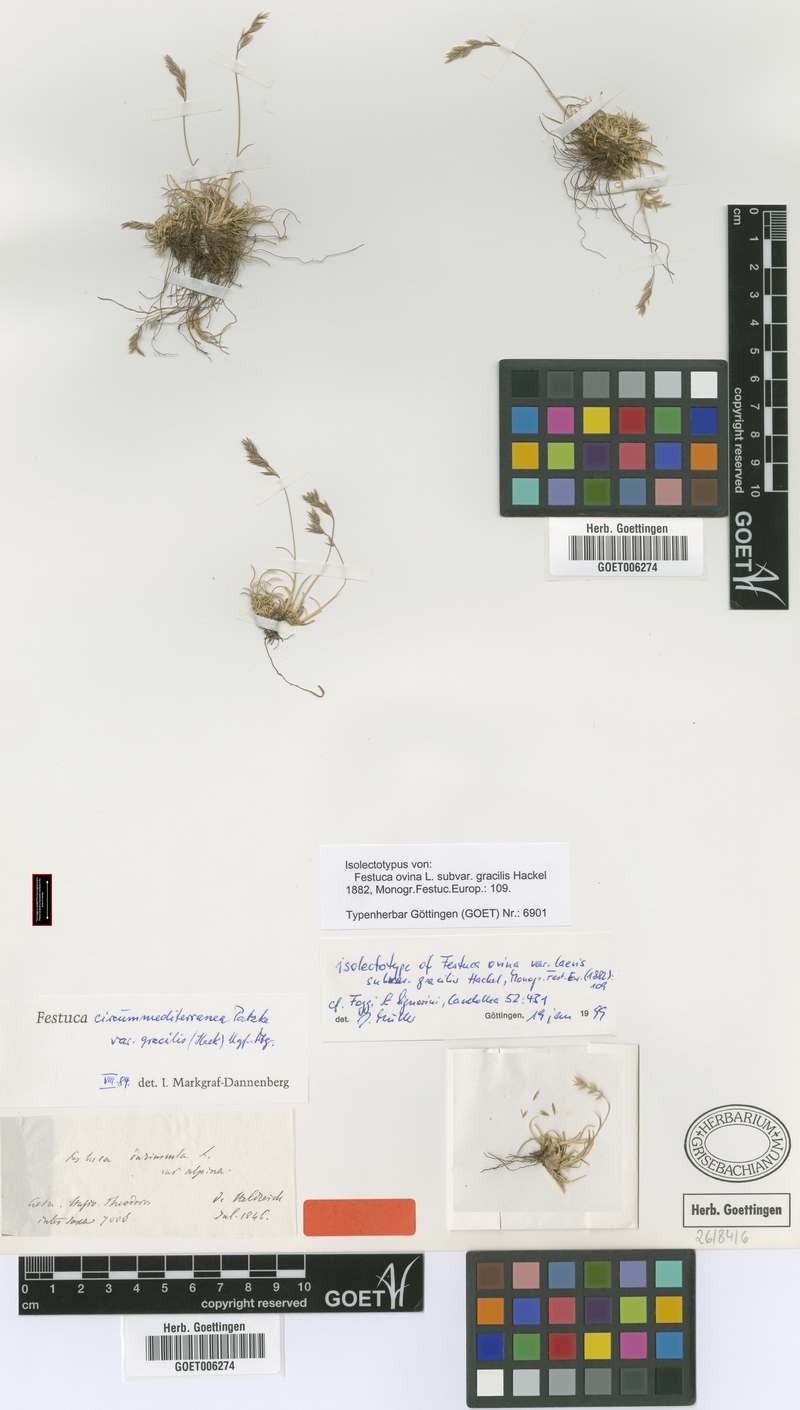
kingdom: Plantae
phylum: Tracheophyta
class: Liliopsida
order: Poales
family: Poaceae
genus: Festuca
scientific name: Festuca jeanpertii
